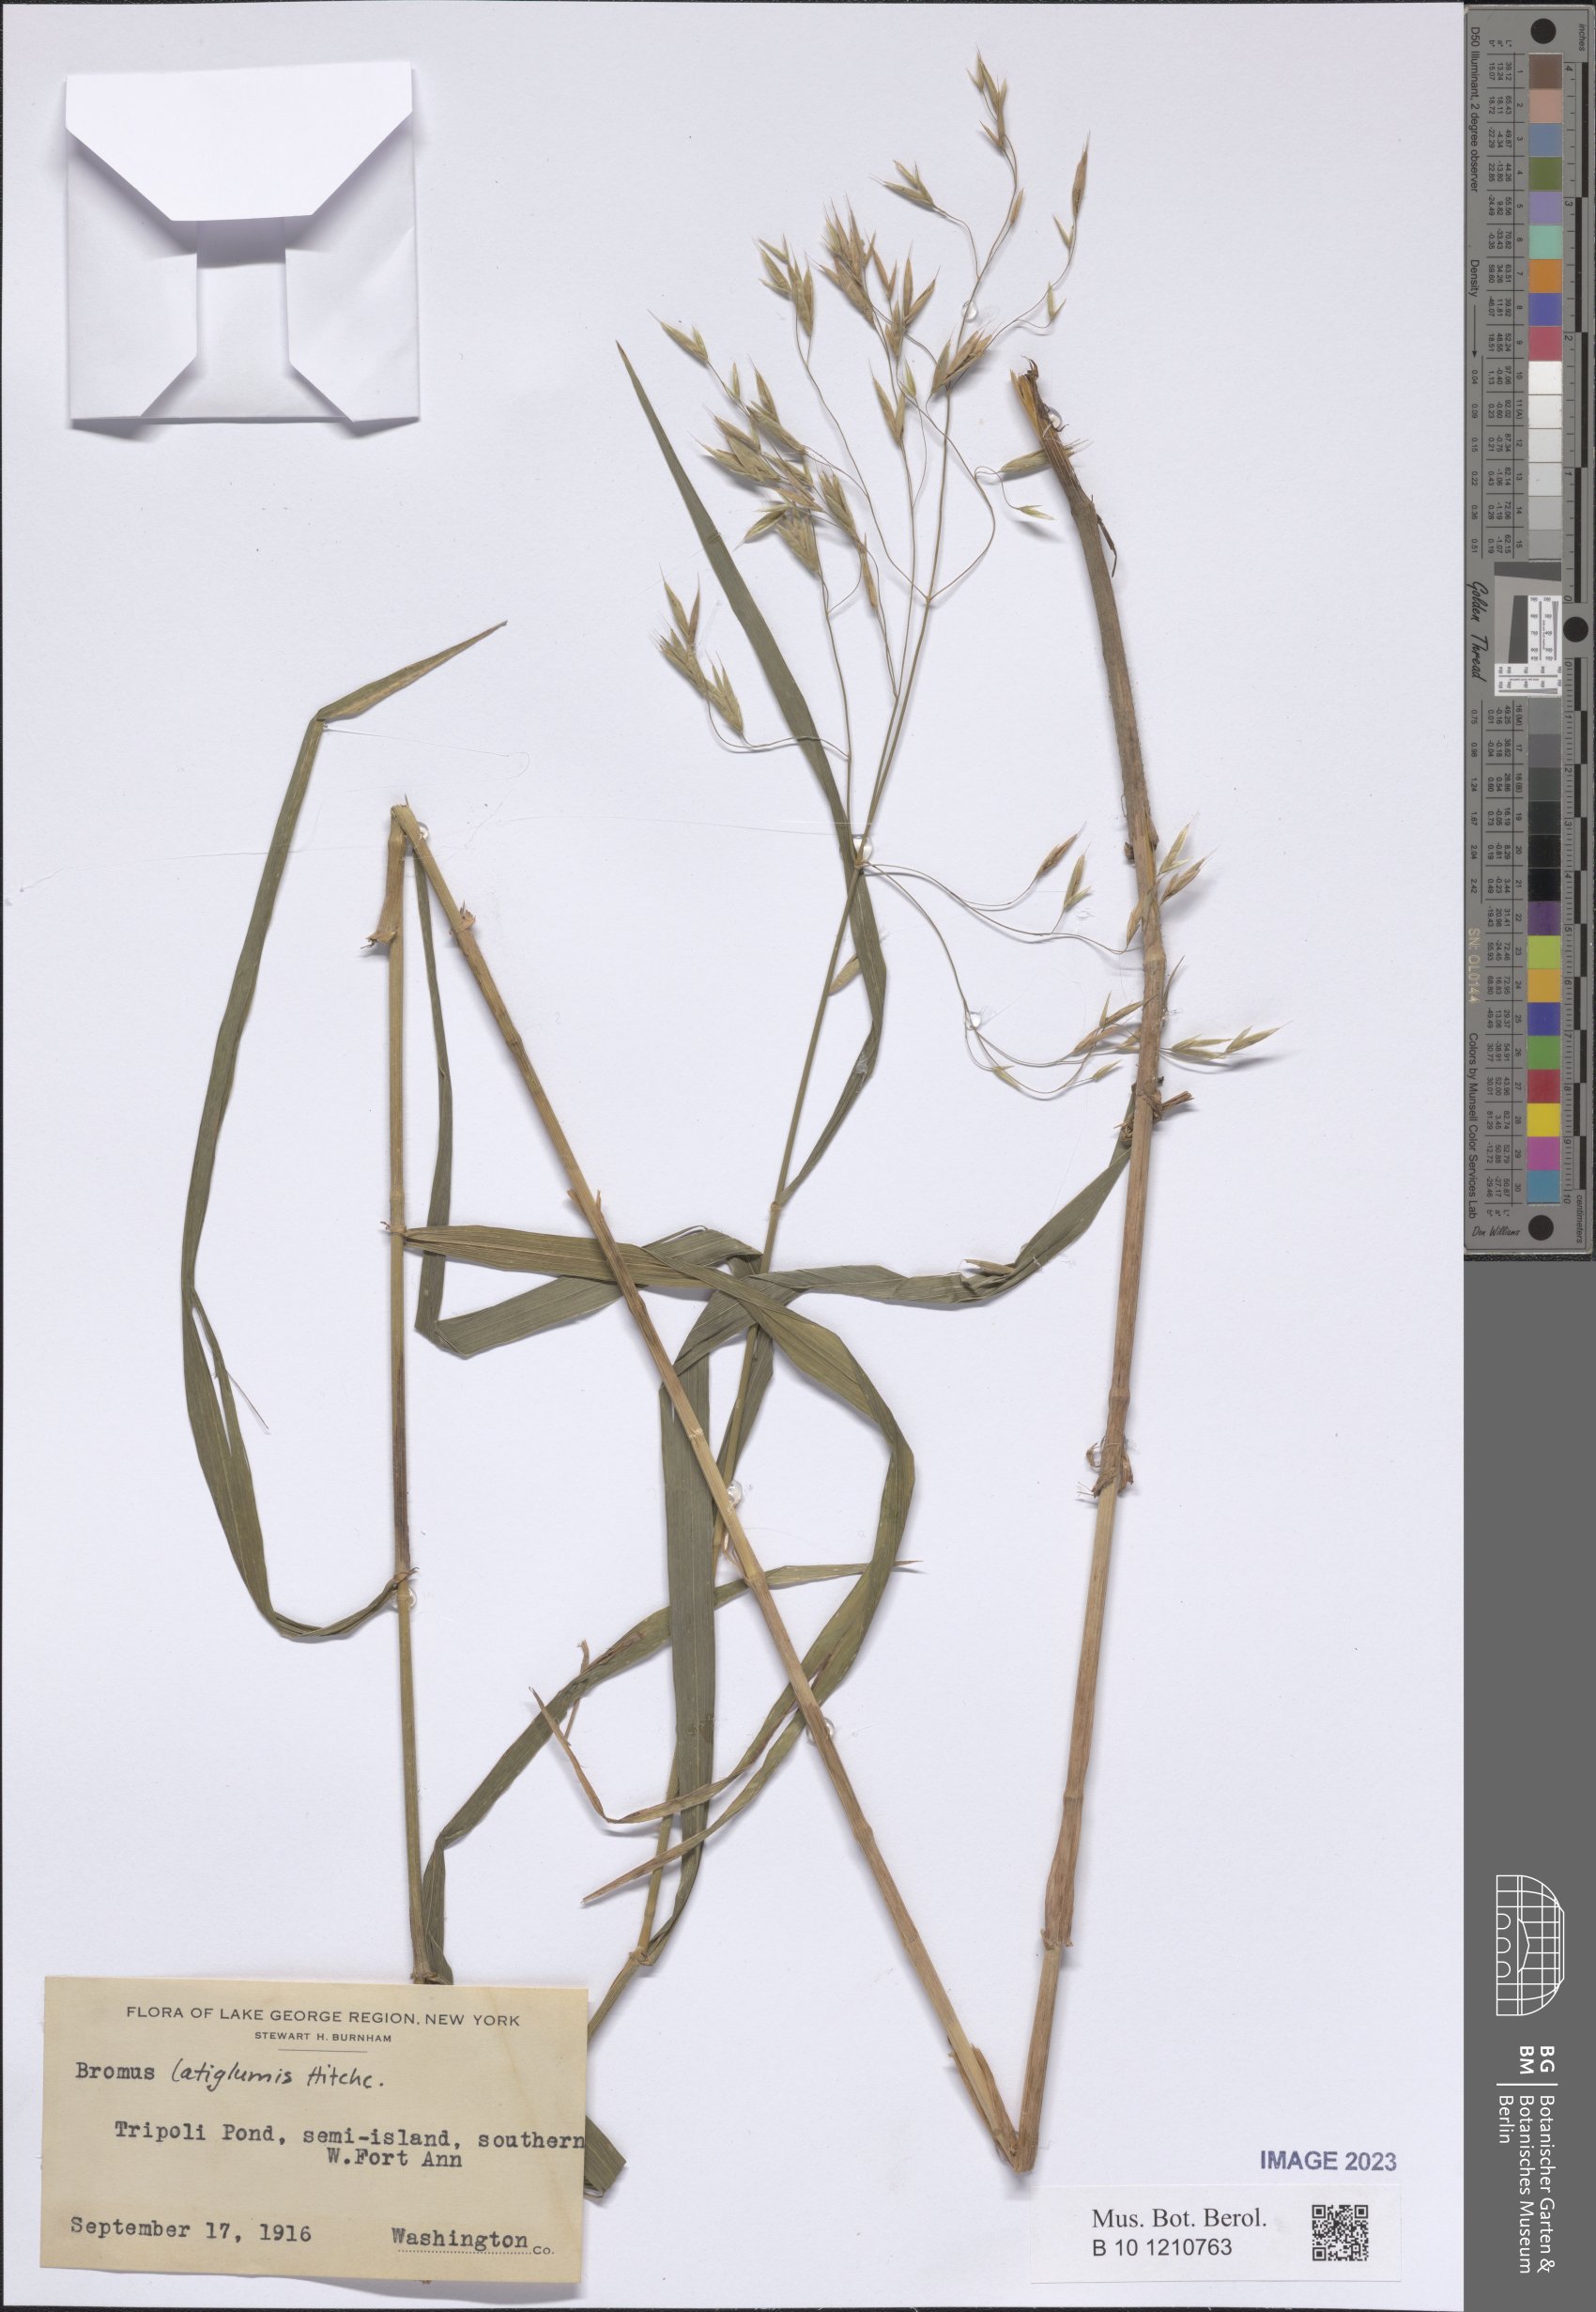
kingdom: Plantae
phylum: Tracheophyta
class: Liliopsida
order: Poales
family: Poaceae
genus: Bromus
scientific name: Bromus latiglumis
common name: Broad-glumed brome
